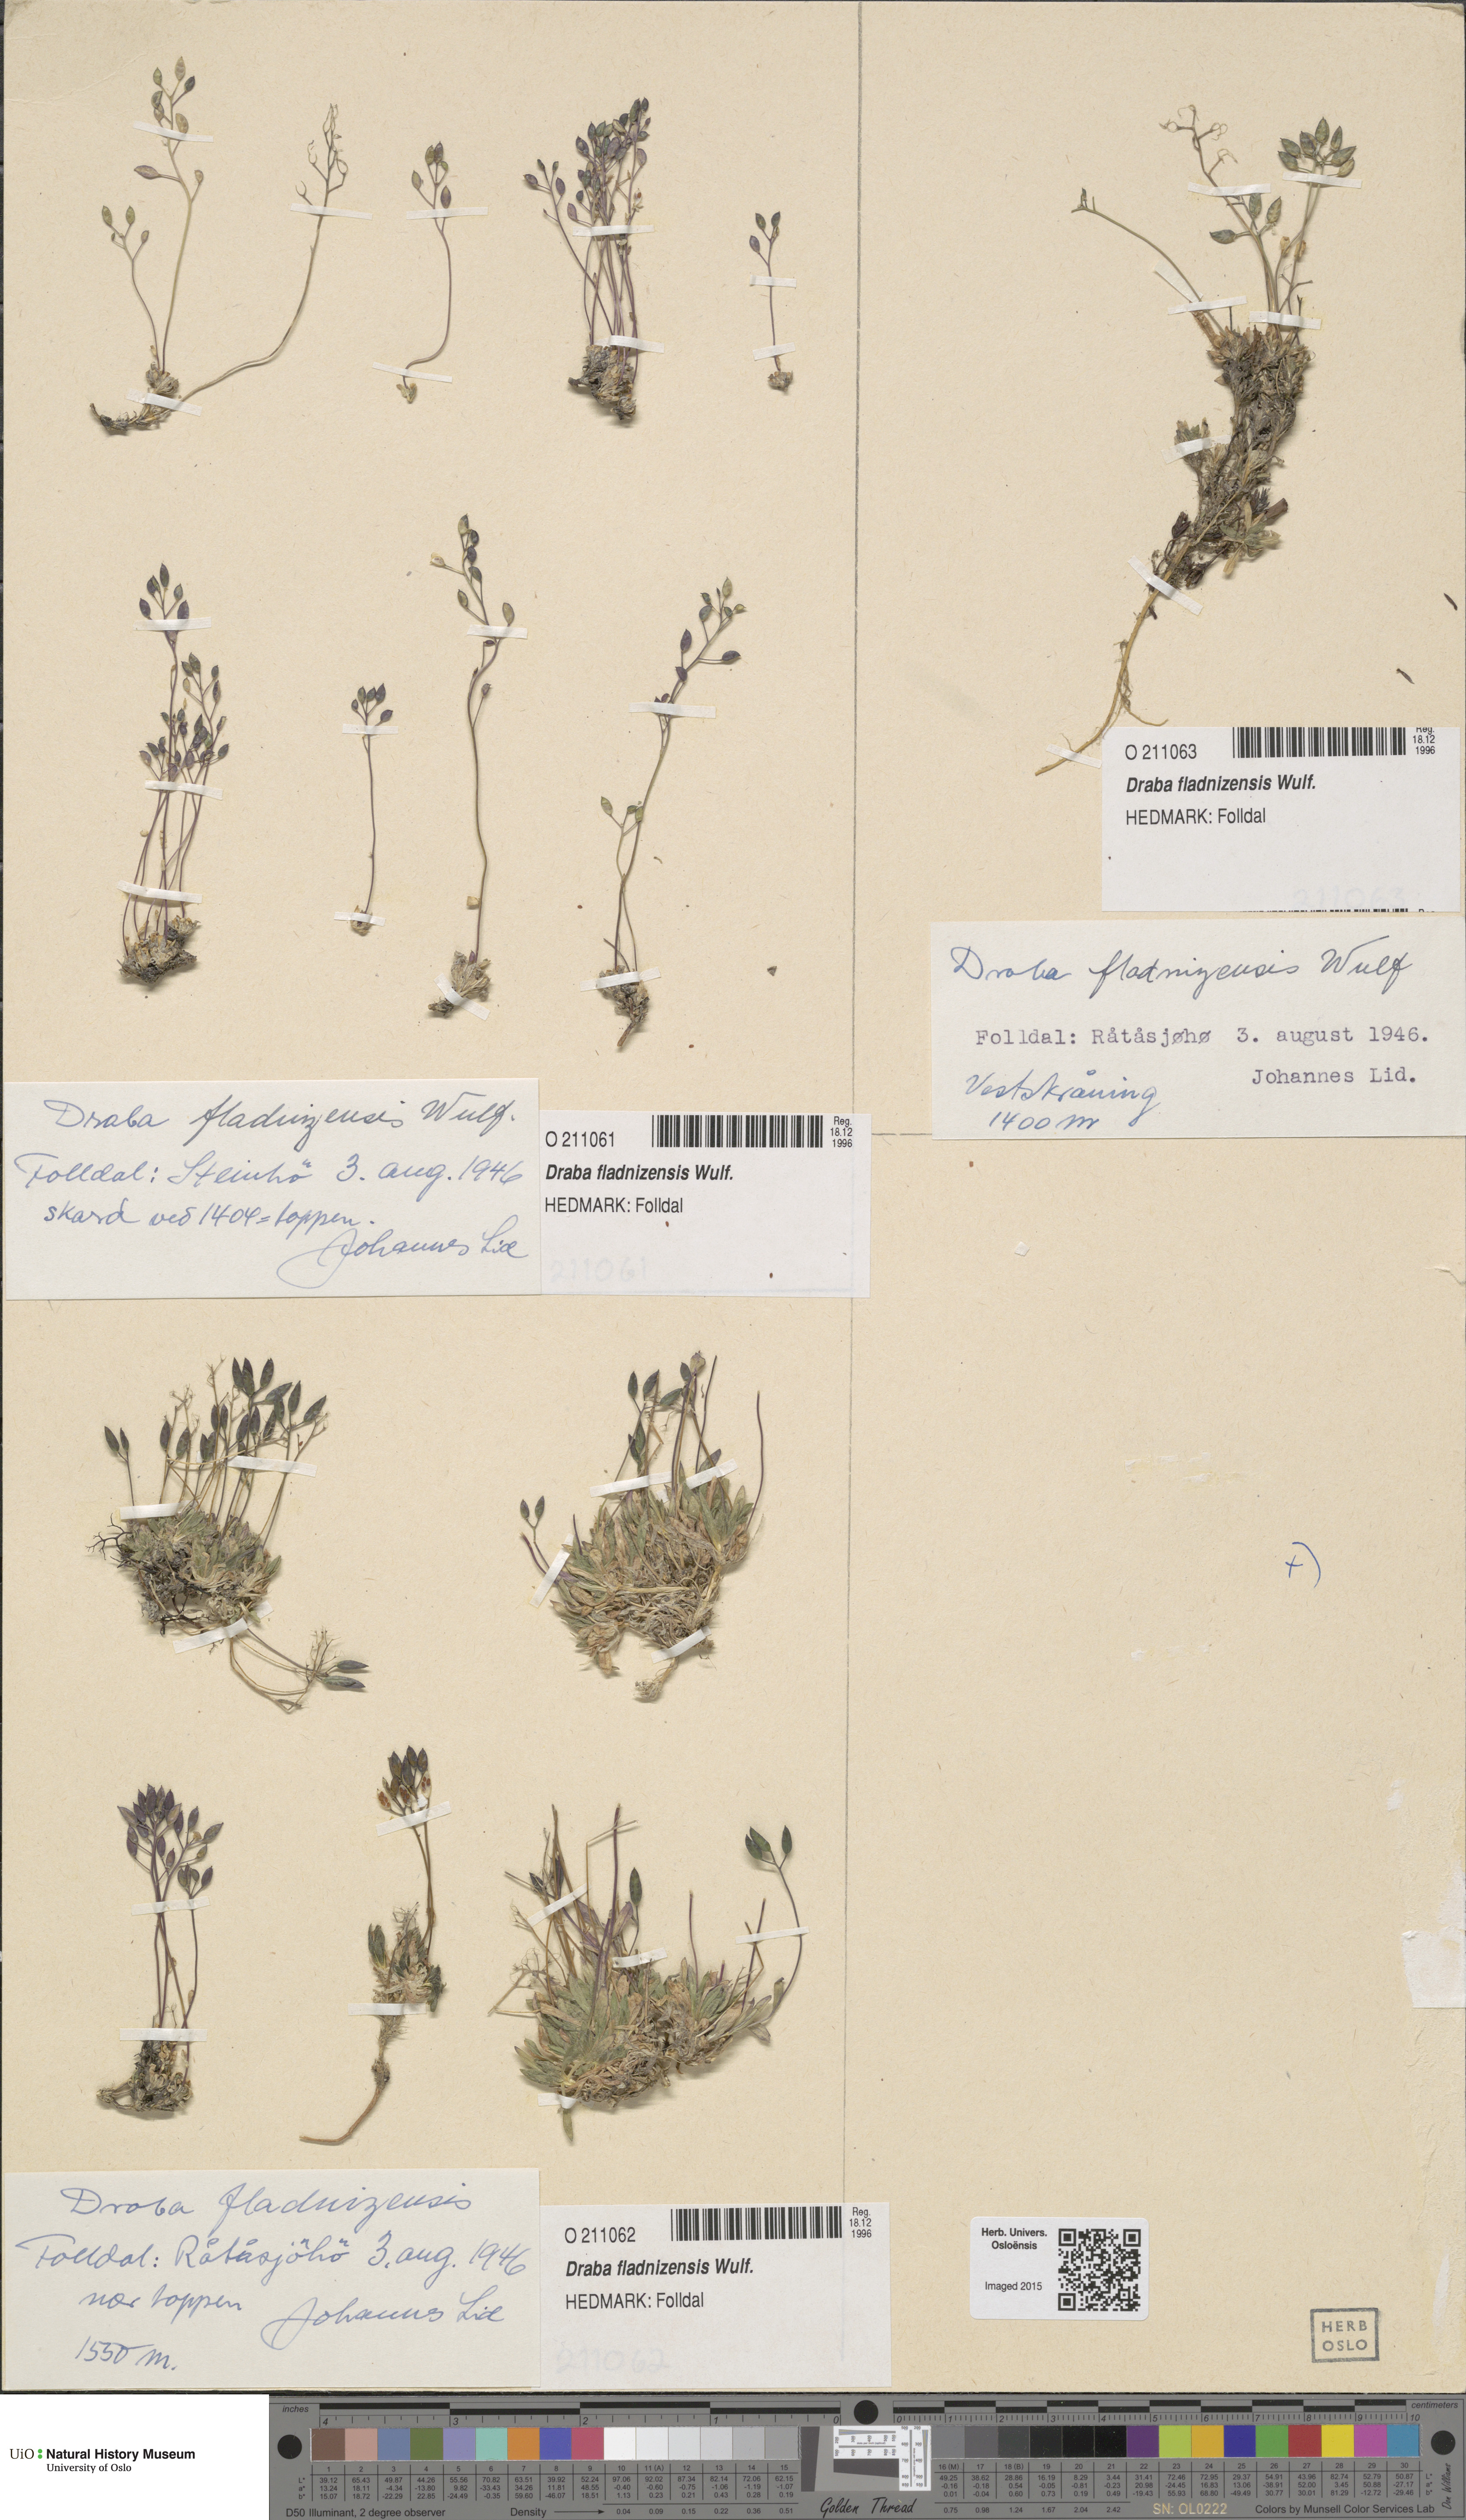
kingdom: Plantae
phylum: Tracheophyta
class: Magnoliopsida
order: Brassicales
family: Brassicaceae
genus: Draba
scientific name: Draba fladnizensis
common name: Austrian draba
